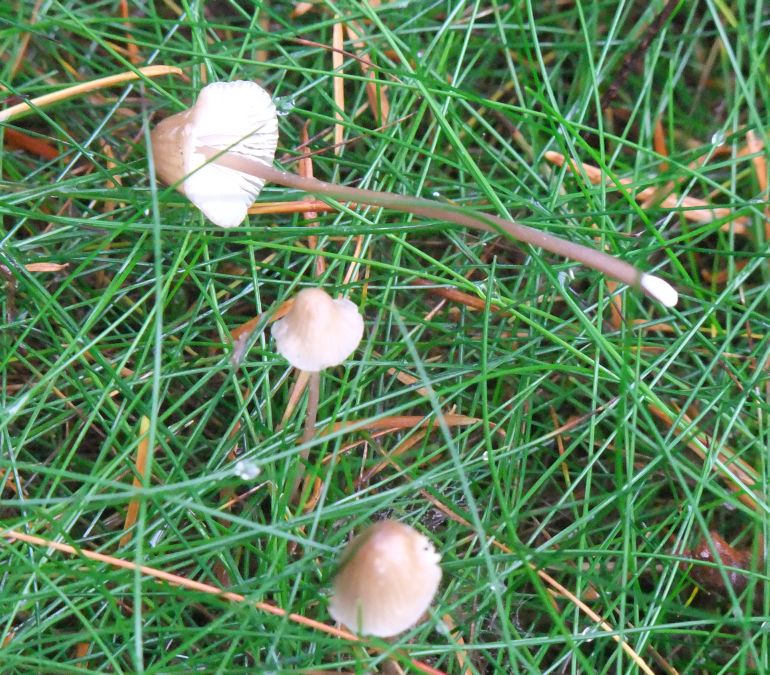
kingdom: Fungi
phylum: Basidiomycota
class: Agaricomycetes
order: Agaricales
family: Mycenaceae
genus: Mycena
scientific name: Mycena galopus
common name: hvidmælket huesvamp
